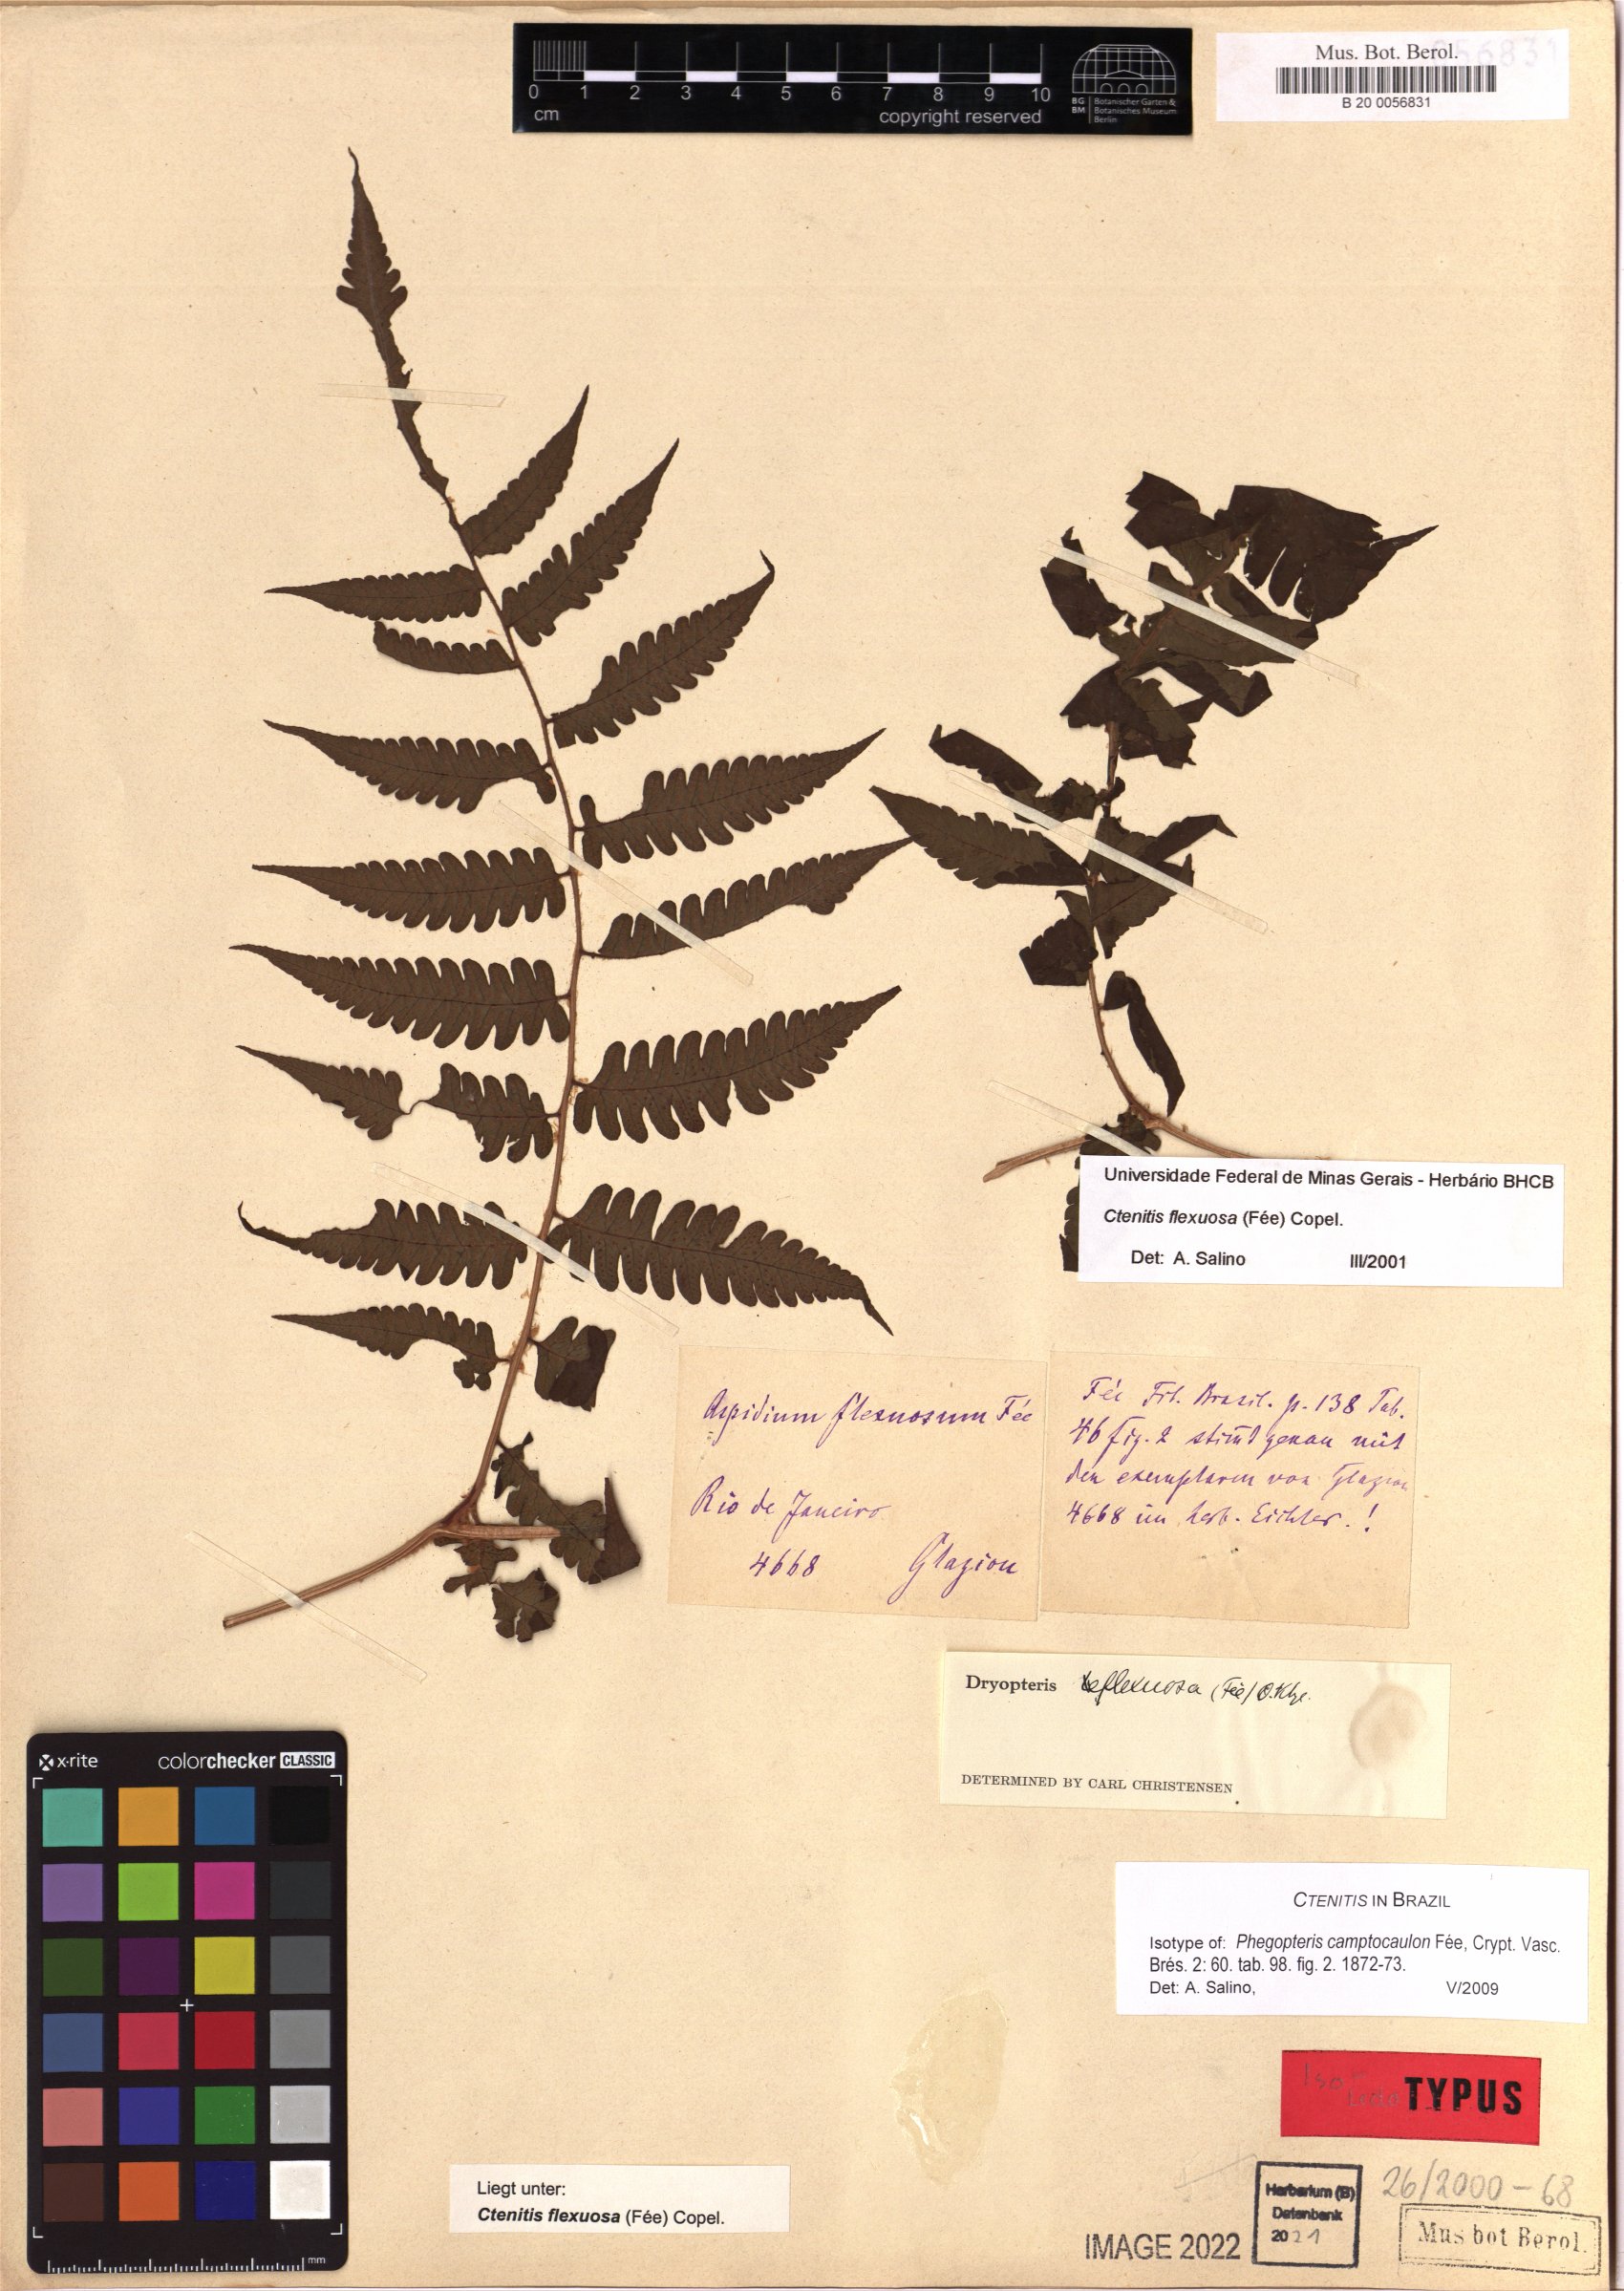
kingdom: Plantae
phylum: Tracheophyta
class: Polypodiopsida
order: Polypodiales
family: Dryopteridaceae
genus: Ctenitis
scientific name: Ctenitis flexuosa
